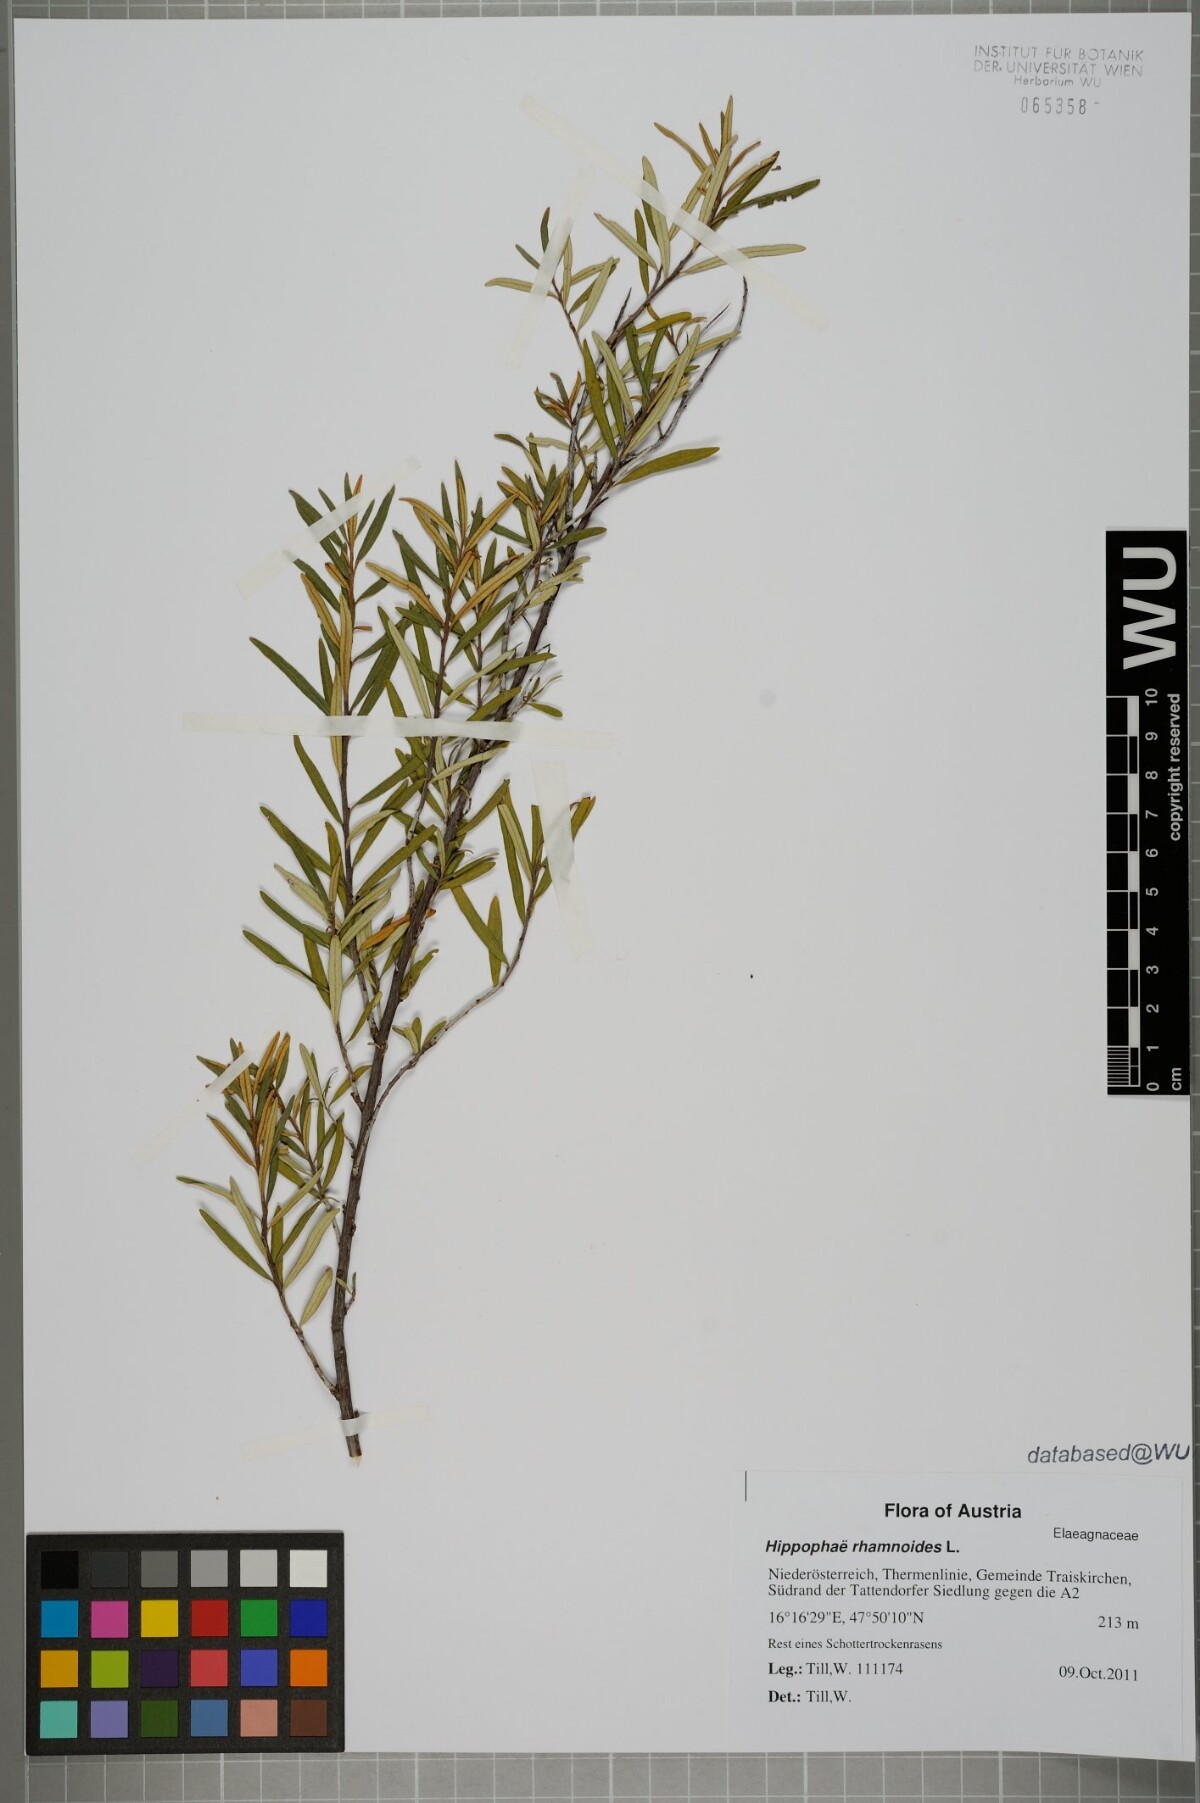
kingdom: Plantae
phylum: Tracheophyta
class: Magnoliopsida
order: Rosales
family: Elaeagnaceae
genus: Hippophae
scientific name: Hippophae rhamnoides
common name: Sea-buckthorn
